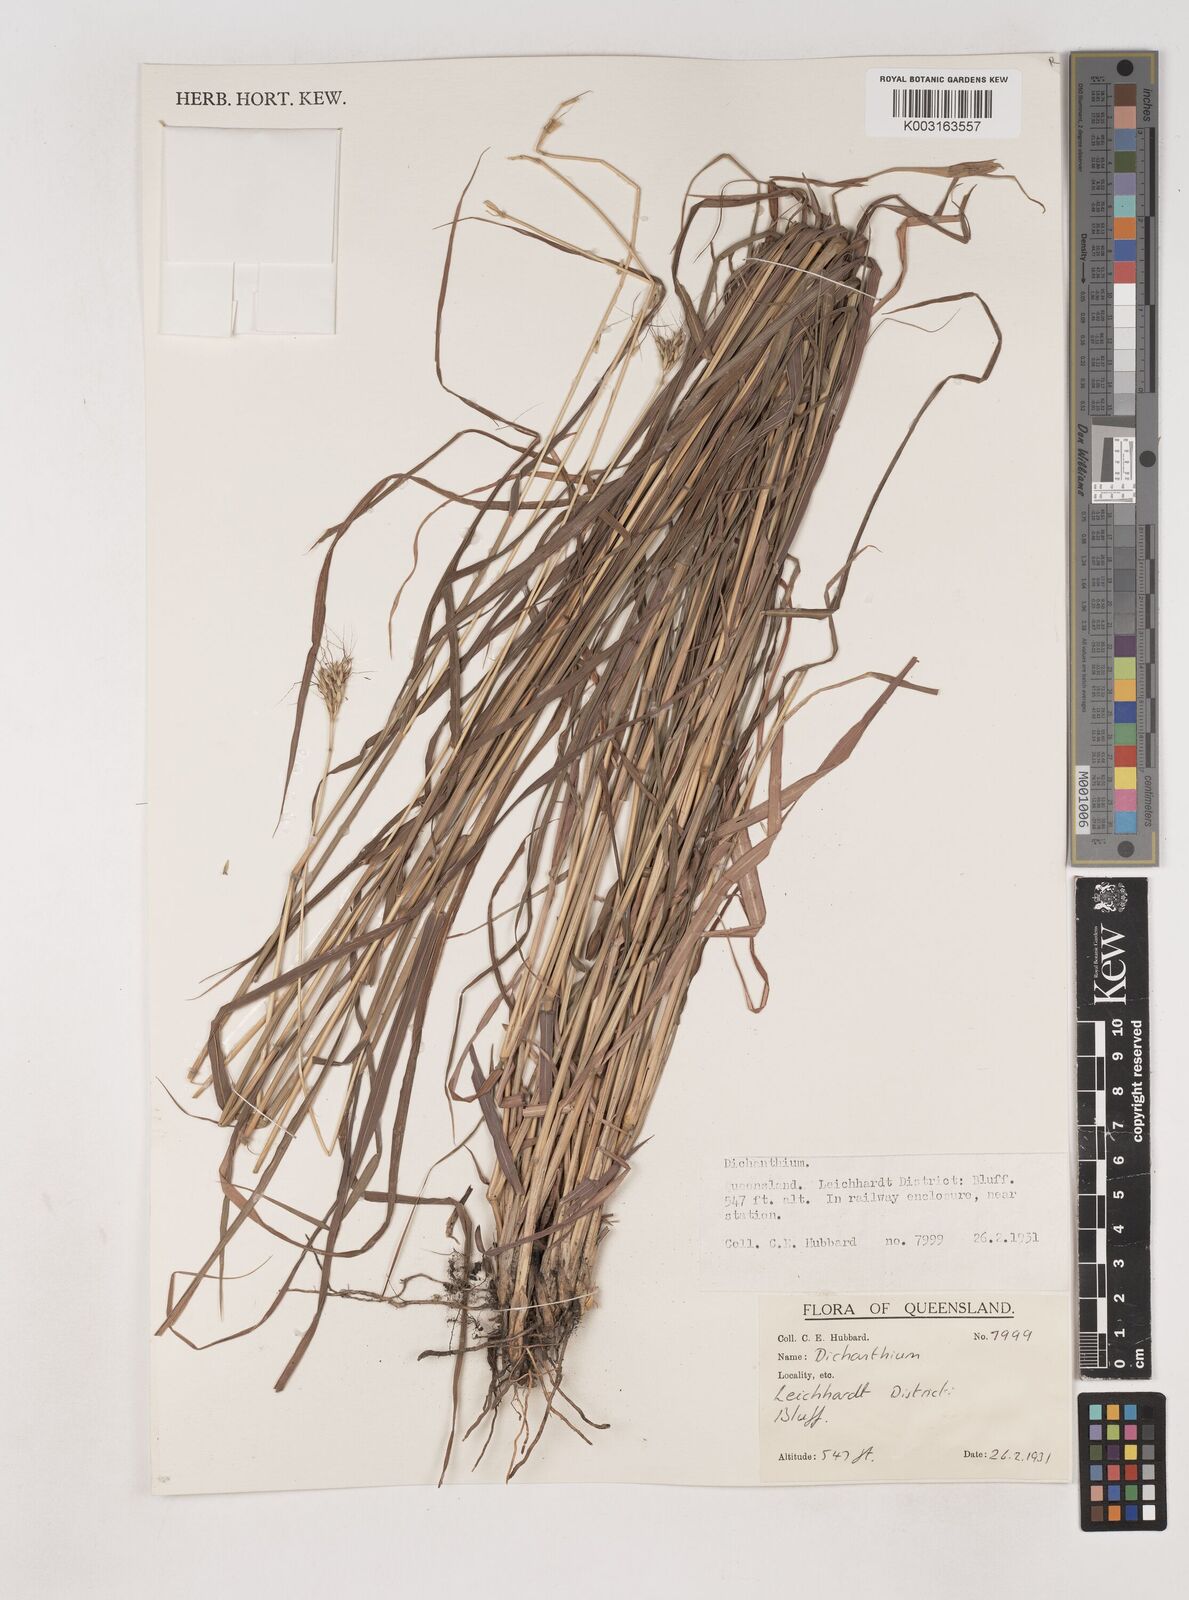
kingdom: Plantae
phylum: Tracheophyta
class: Liliopsida
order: Poales
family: Poaceae
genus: Dichanthium
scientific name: Dichanthium
